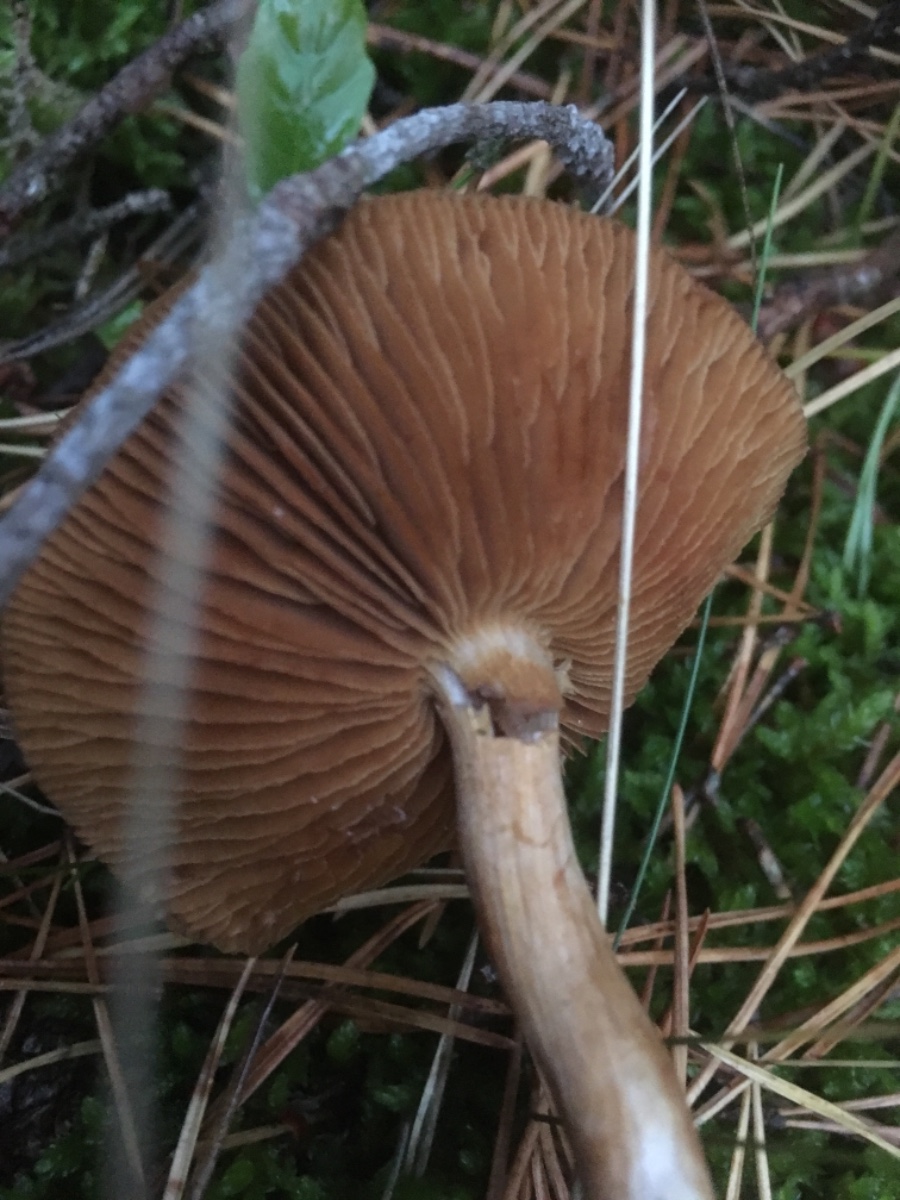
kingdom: Fungi
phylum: Basidiomycota
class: Agaricomycetes
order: Agaricales
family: Cortinariaceae
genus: Cortinarius
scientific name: Cortinarius
